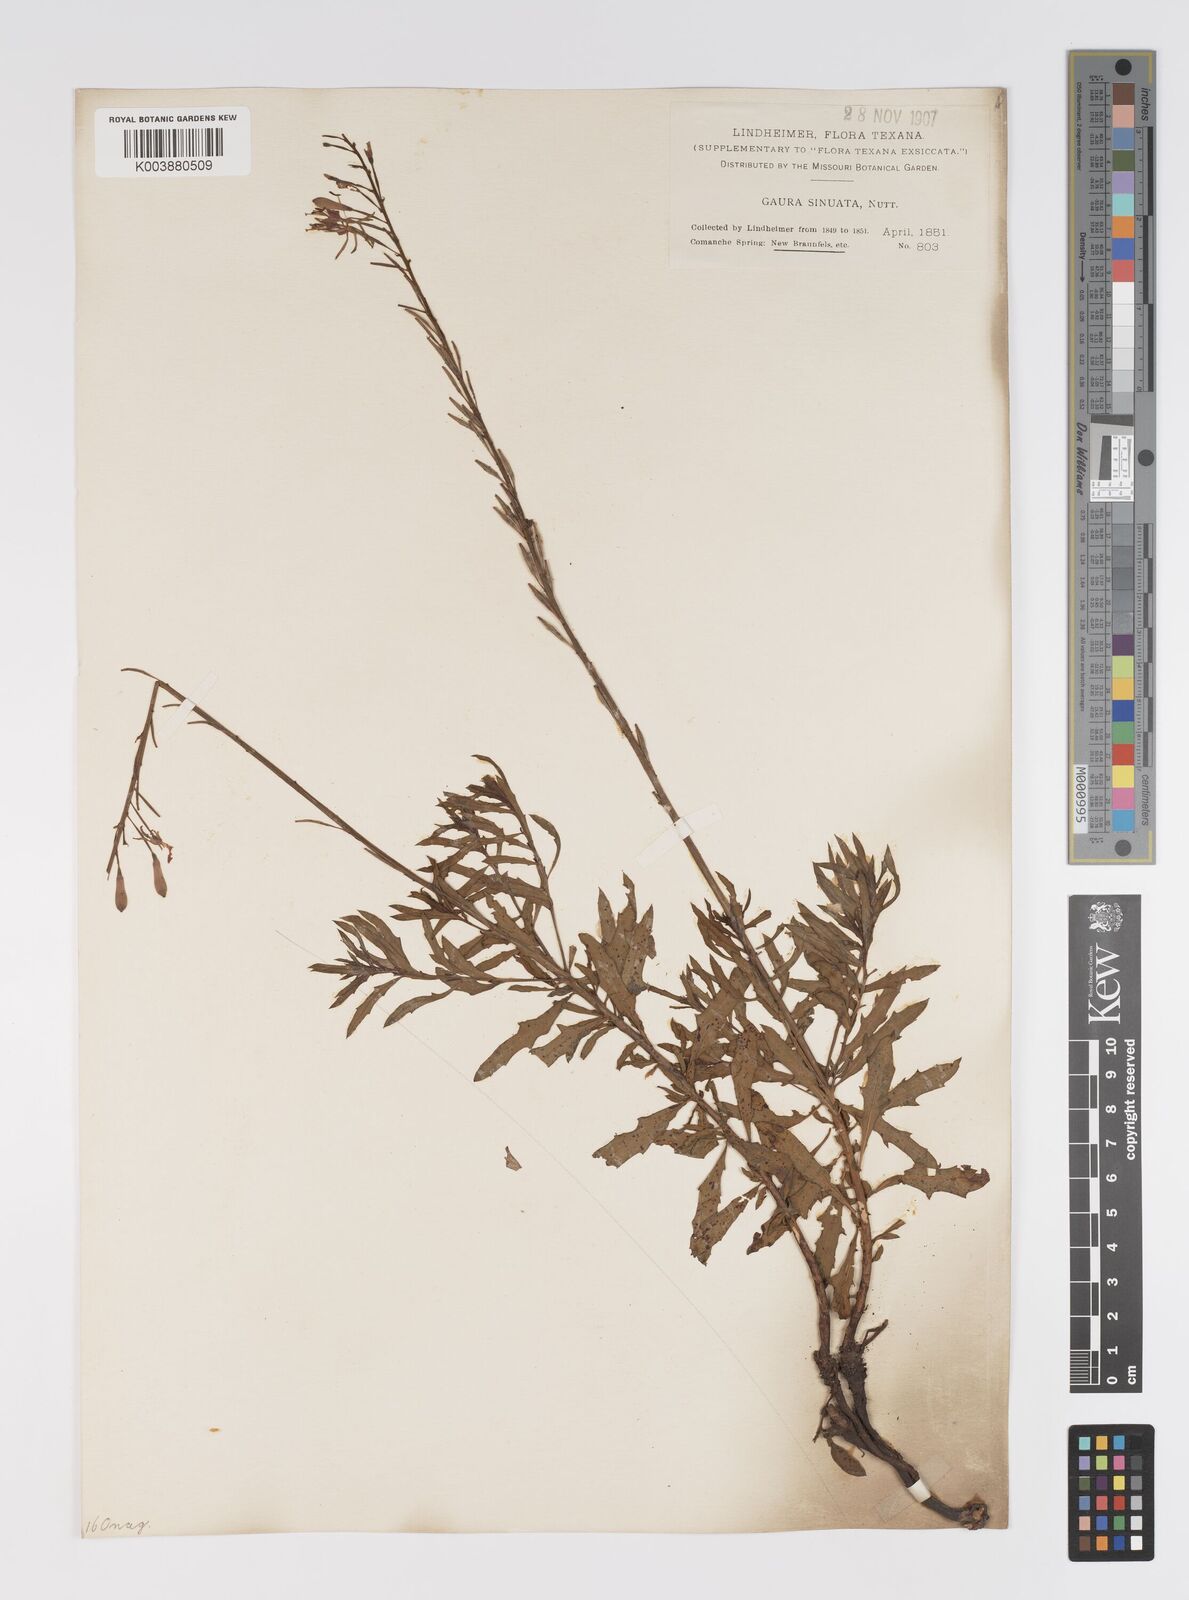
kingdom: Plantae
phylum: Tracheophyta
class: Magnoliopsida
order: Myrtales
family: Onagraceae
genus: Oenothera
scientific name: Oenothera sinuosa
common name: Wavyleaf beeblossom
